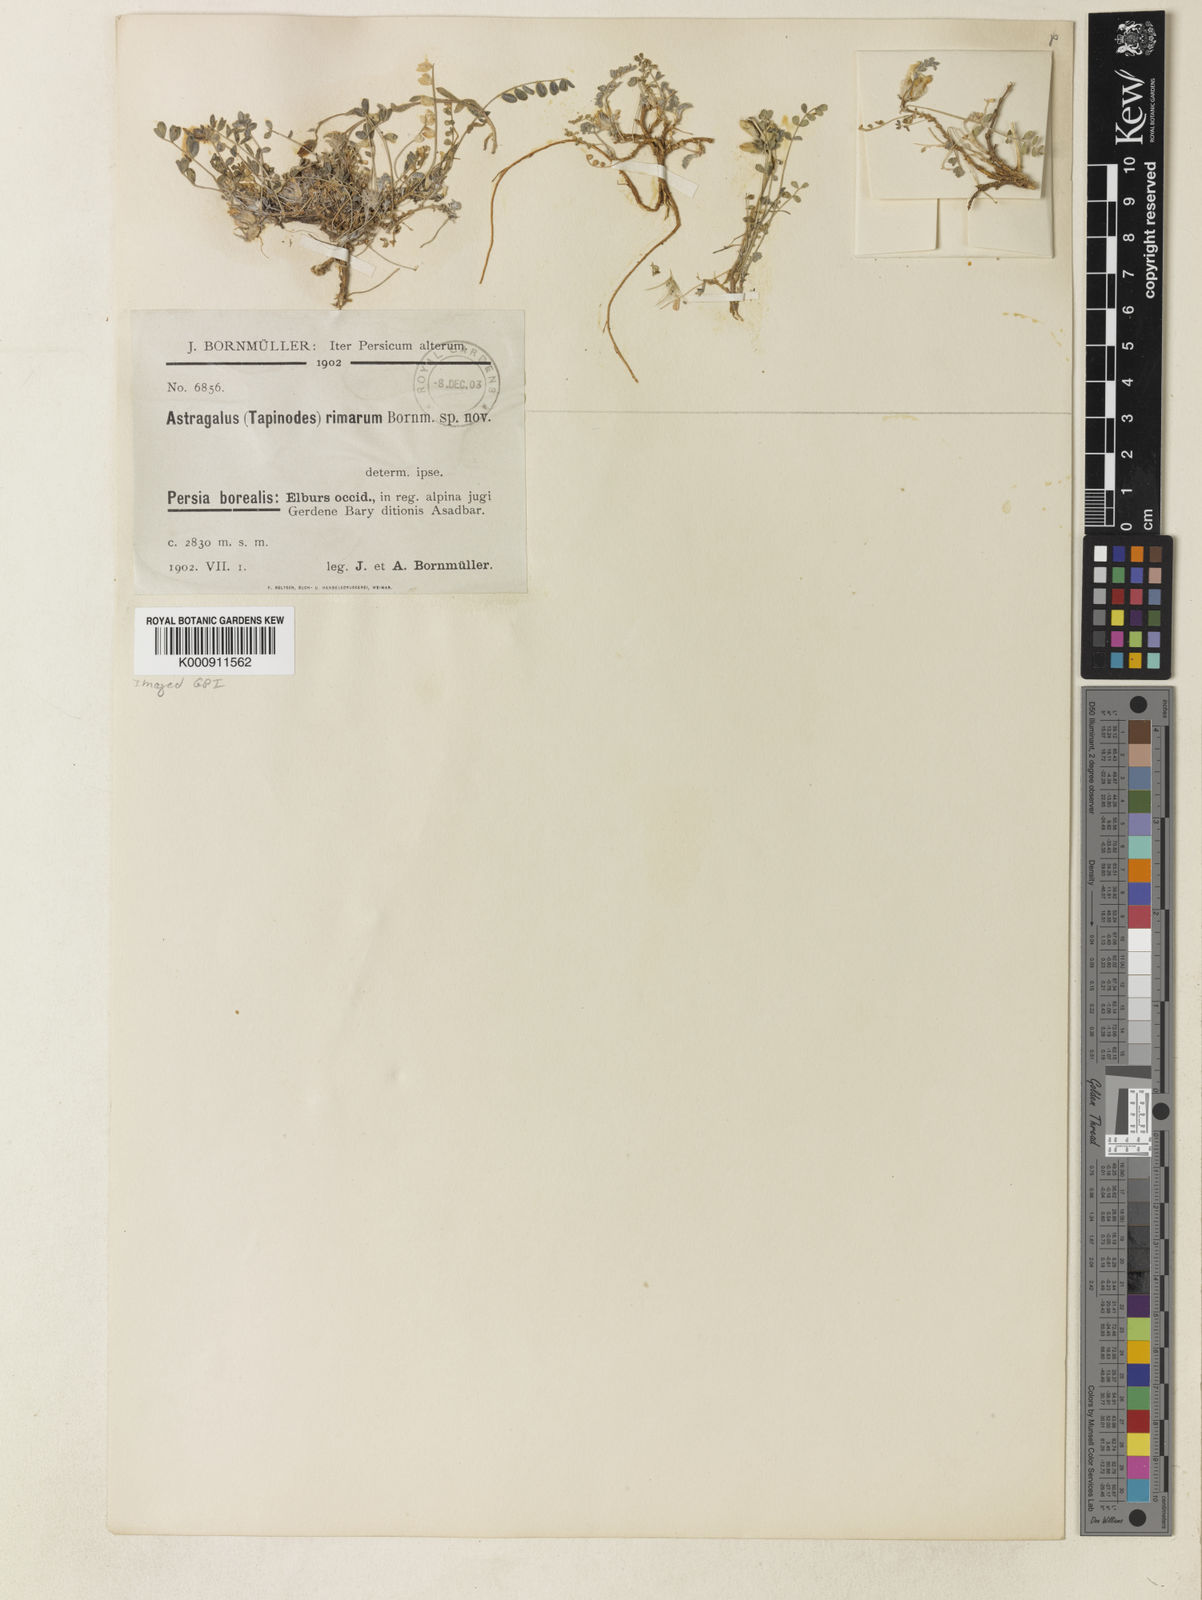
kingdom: Plantae
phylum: Tracheophyta
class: Magnoliopsida
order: Fabales
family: Fabaceae
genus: Astragalus
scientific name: Astragalus rimarum
